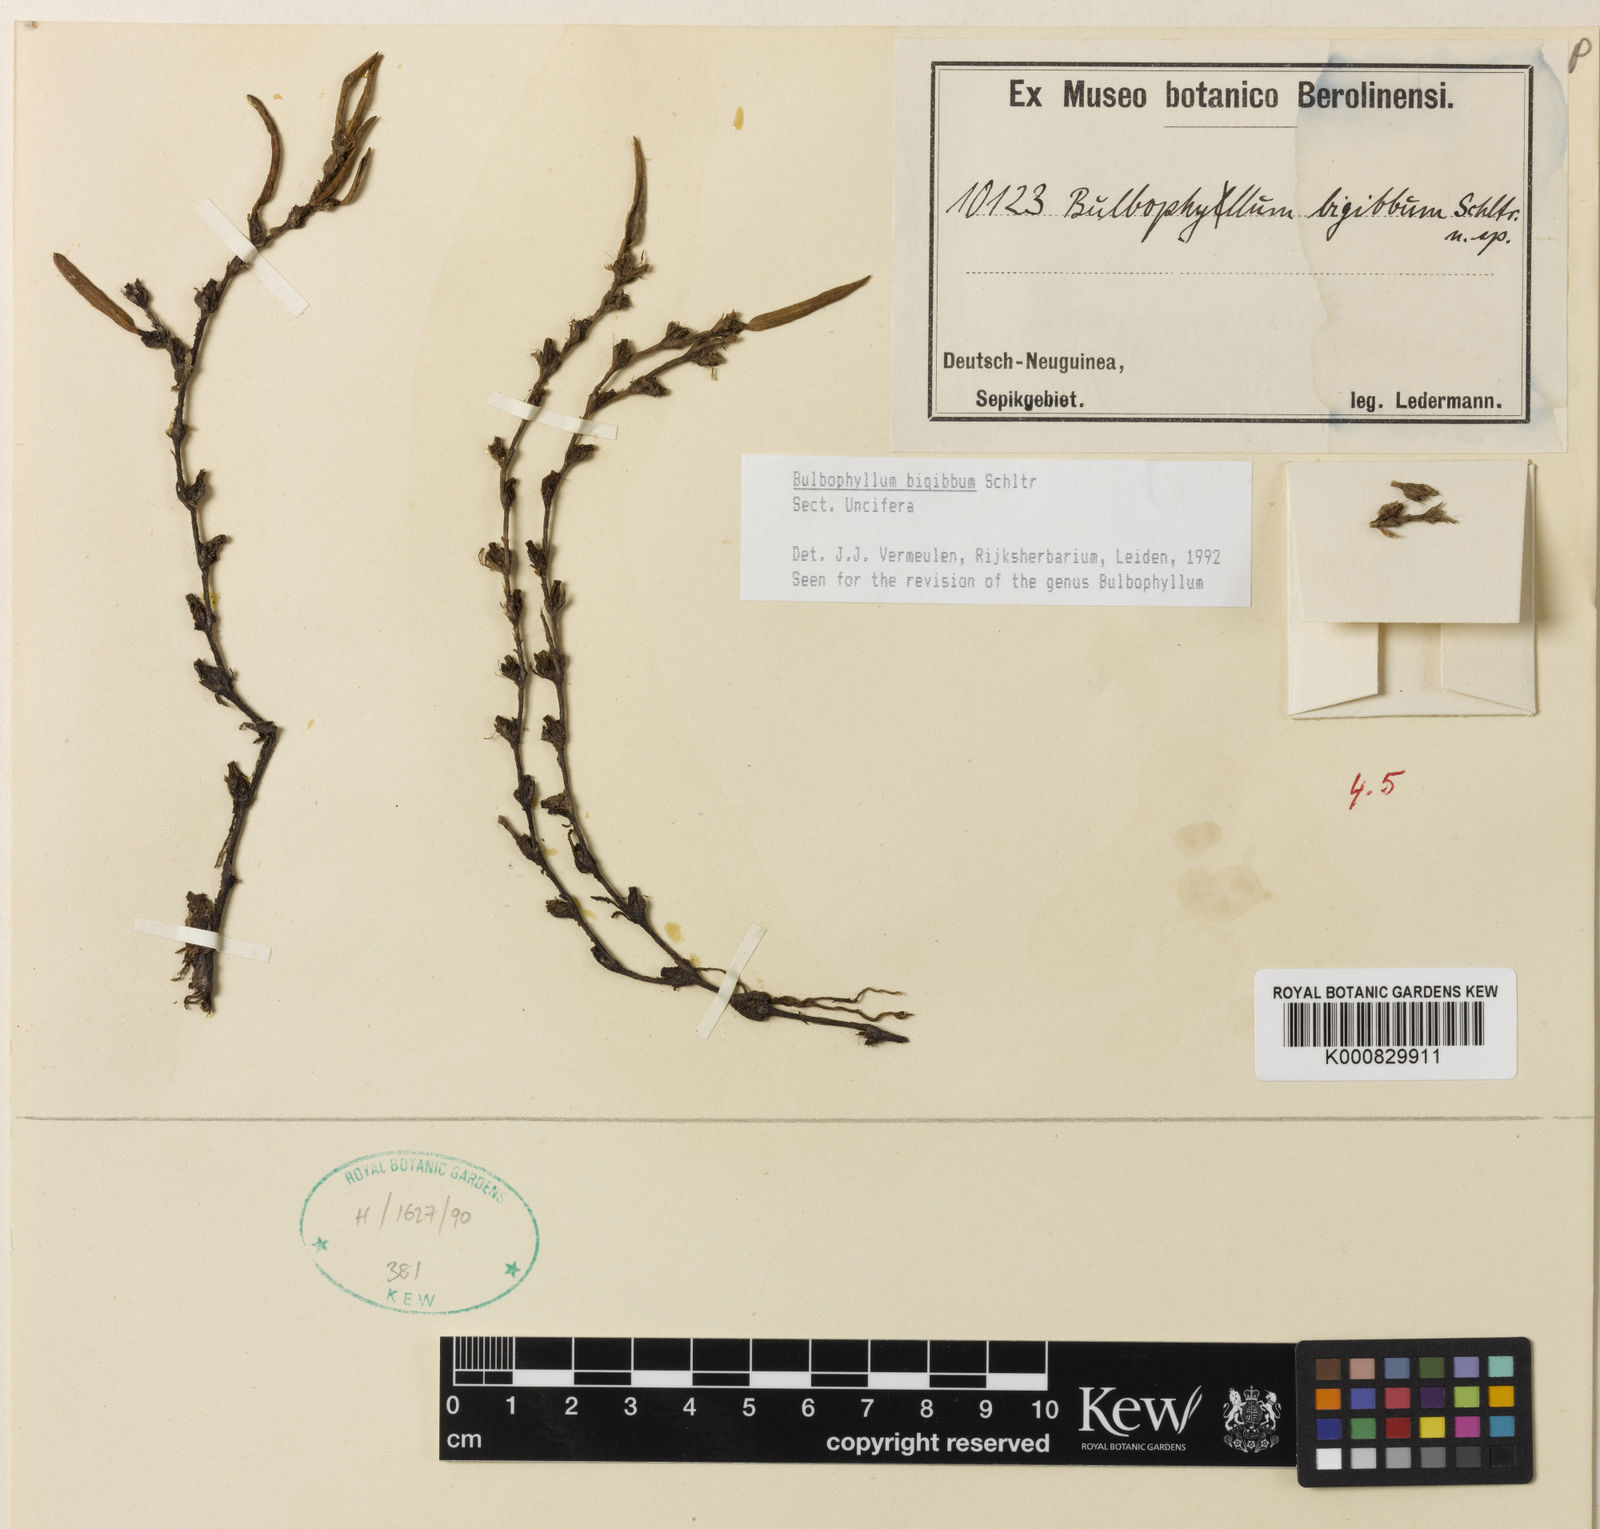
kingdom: Plantae
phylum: Tracheophyta
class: Liliopsida
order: Asparagales
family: Orchidaceae
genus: Bulbophyllum
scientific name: Bulbophyllum
